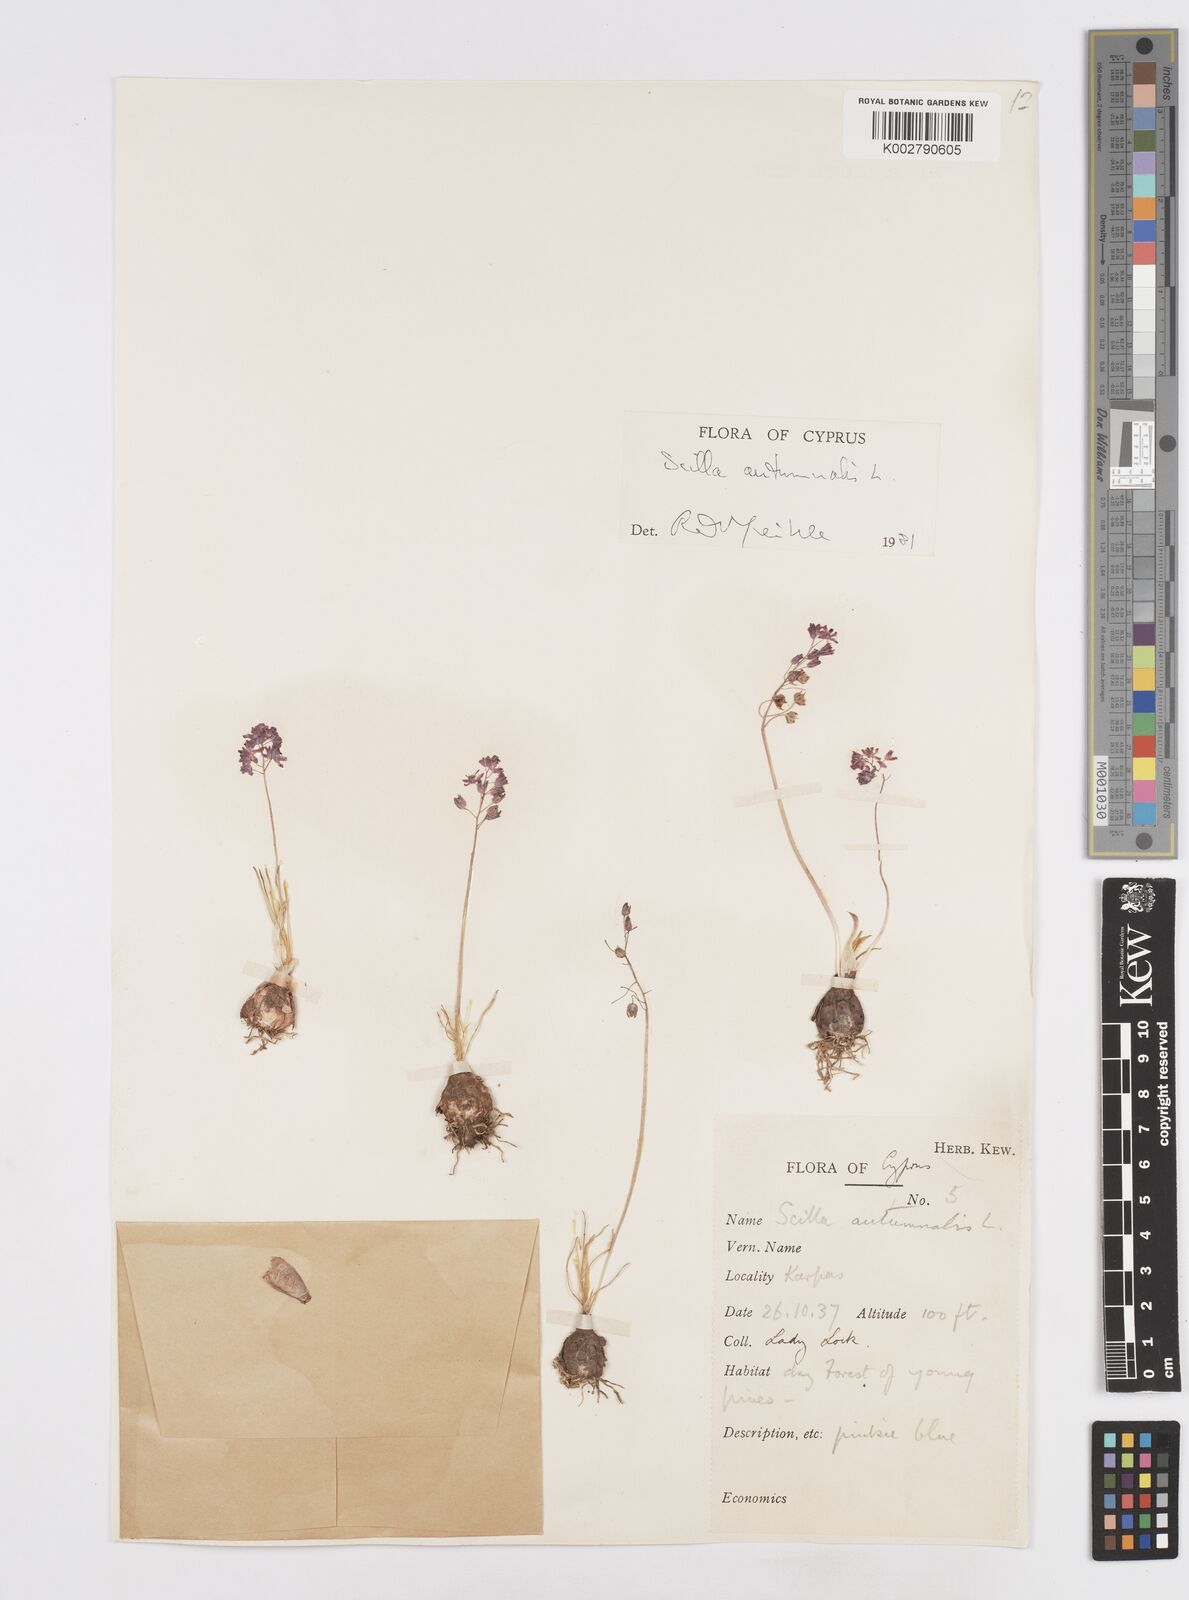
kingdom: Plantae
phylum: Tracheophyta
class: Liliopsida
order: Asparagales
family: Asparagaceae
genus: Prospero
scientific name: Prospero autumnale
